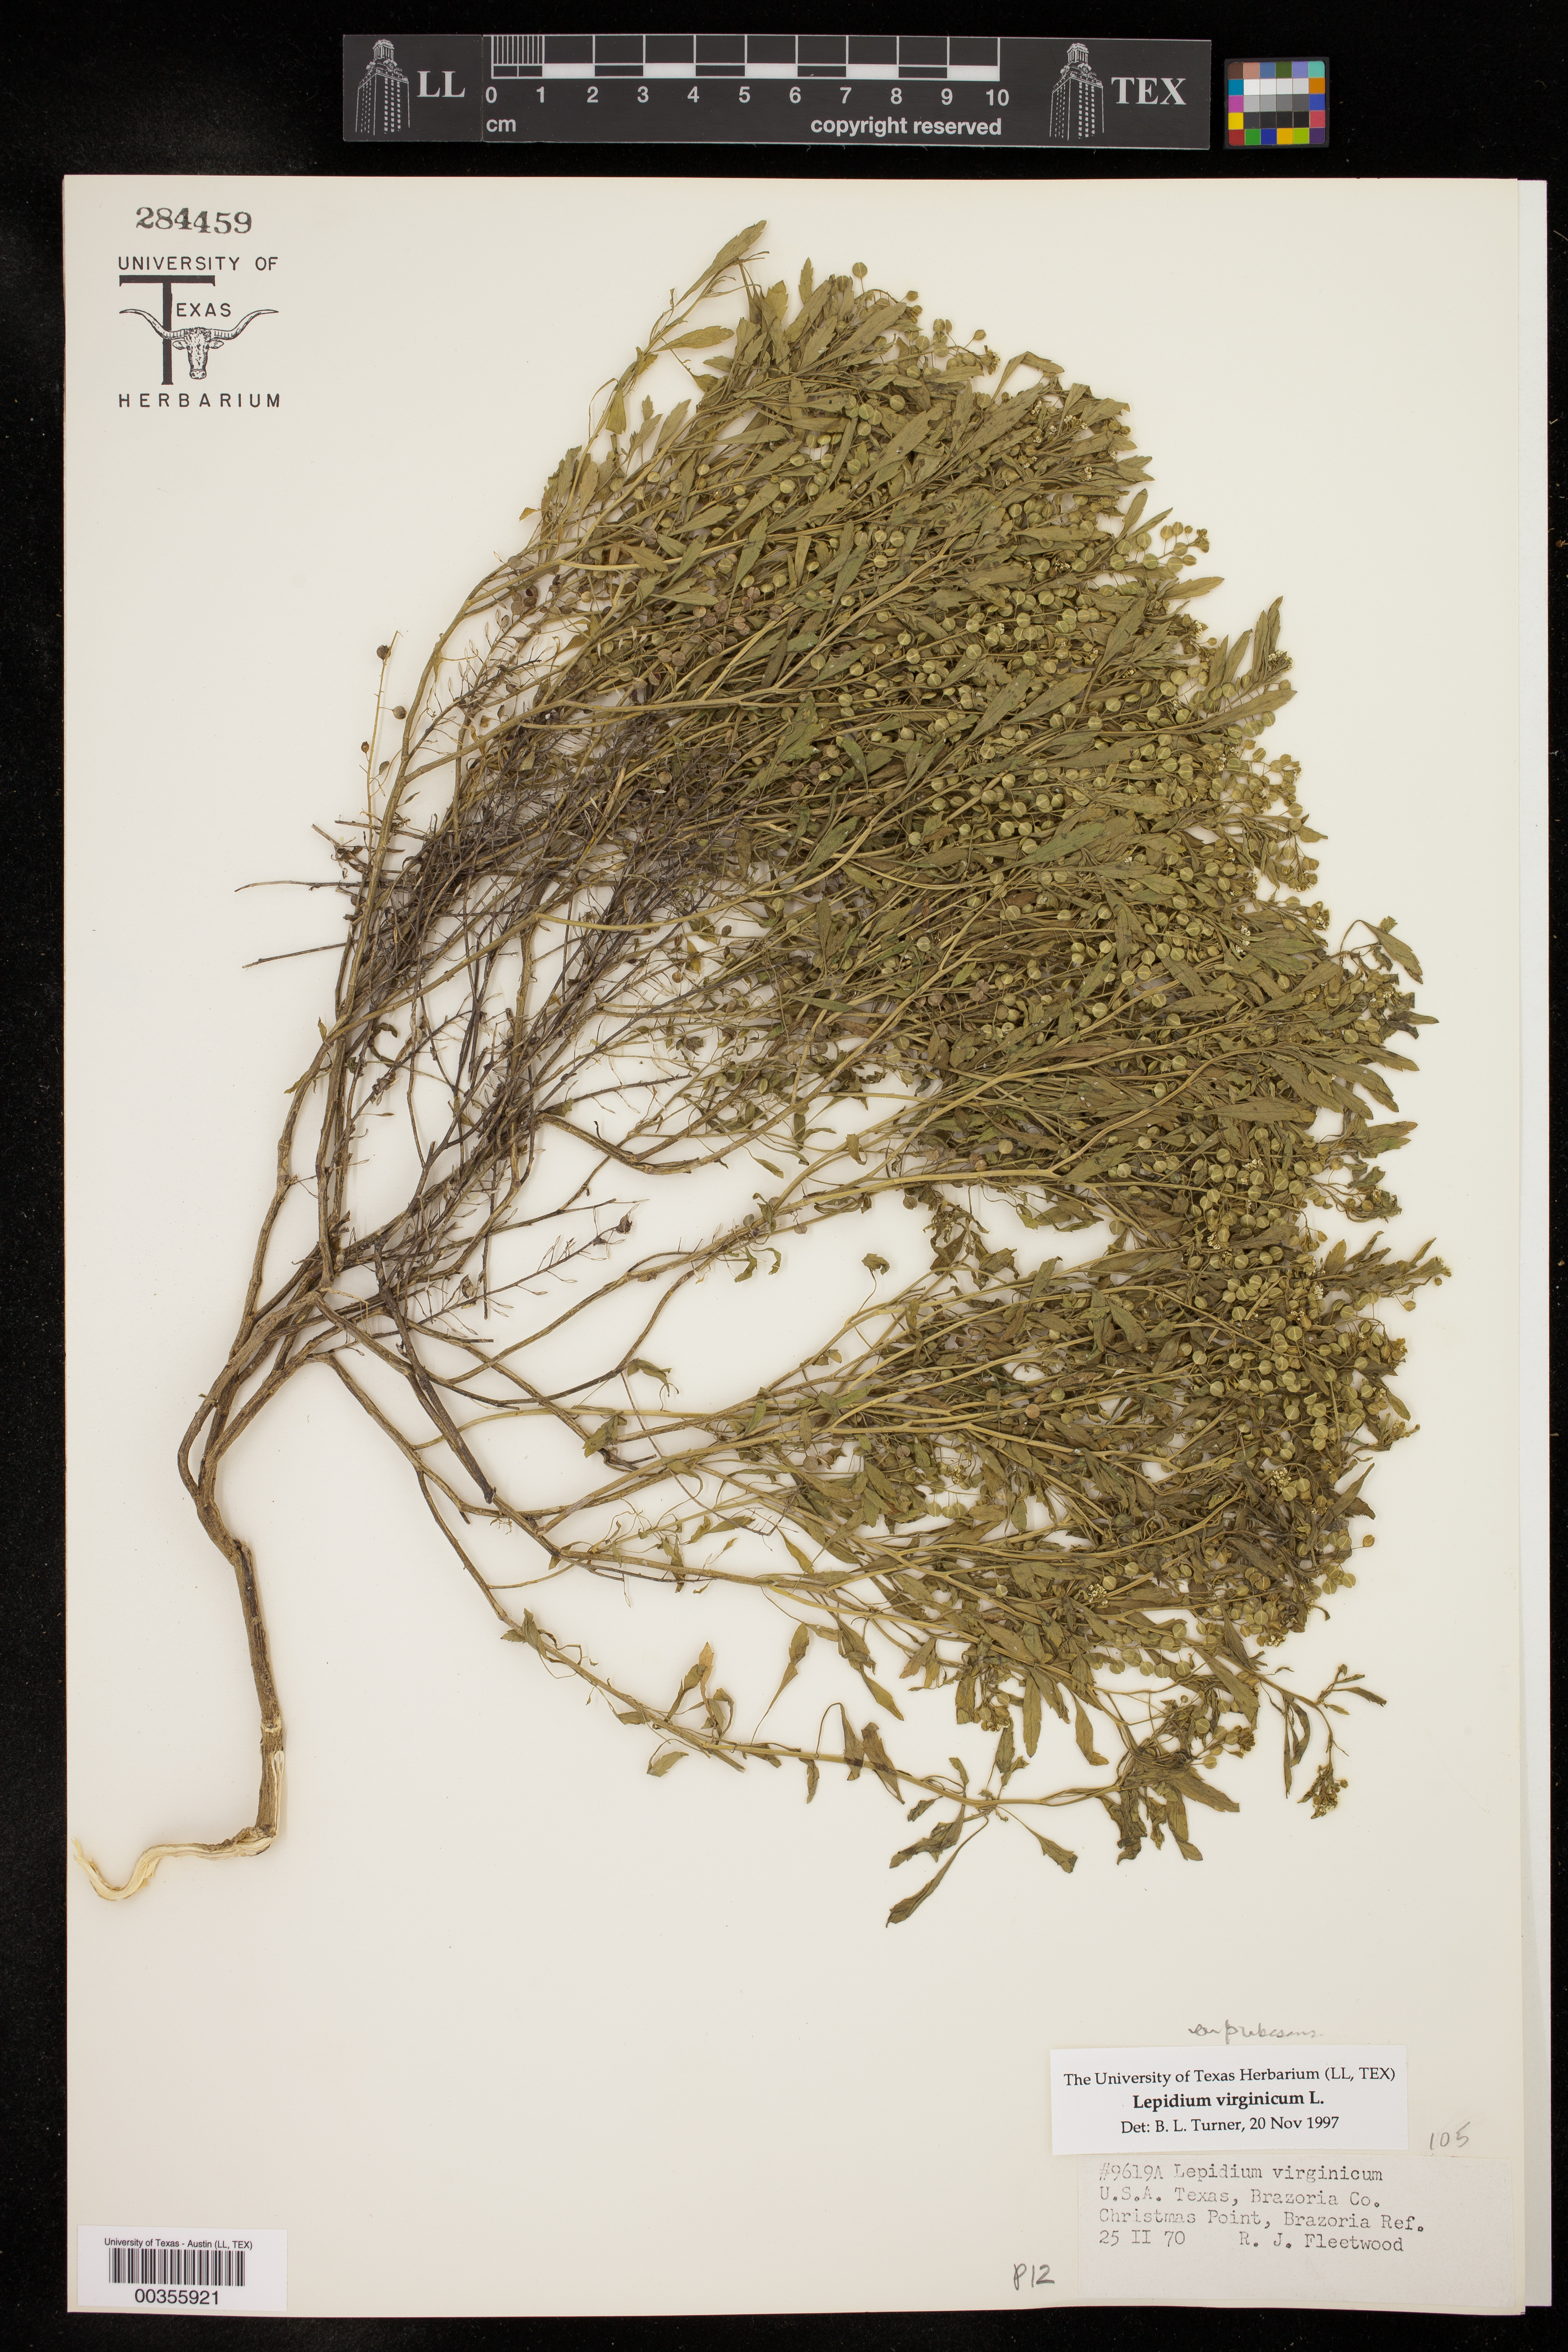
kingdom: Plantae
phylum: Tracheophyta
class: Magnoliopsida
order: Brassicales
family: Brassicaceae
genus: Lepidium
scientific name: Lepidium virginicum
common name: Least pepperwort
